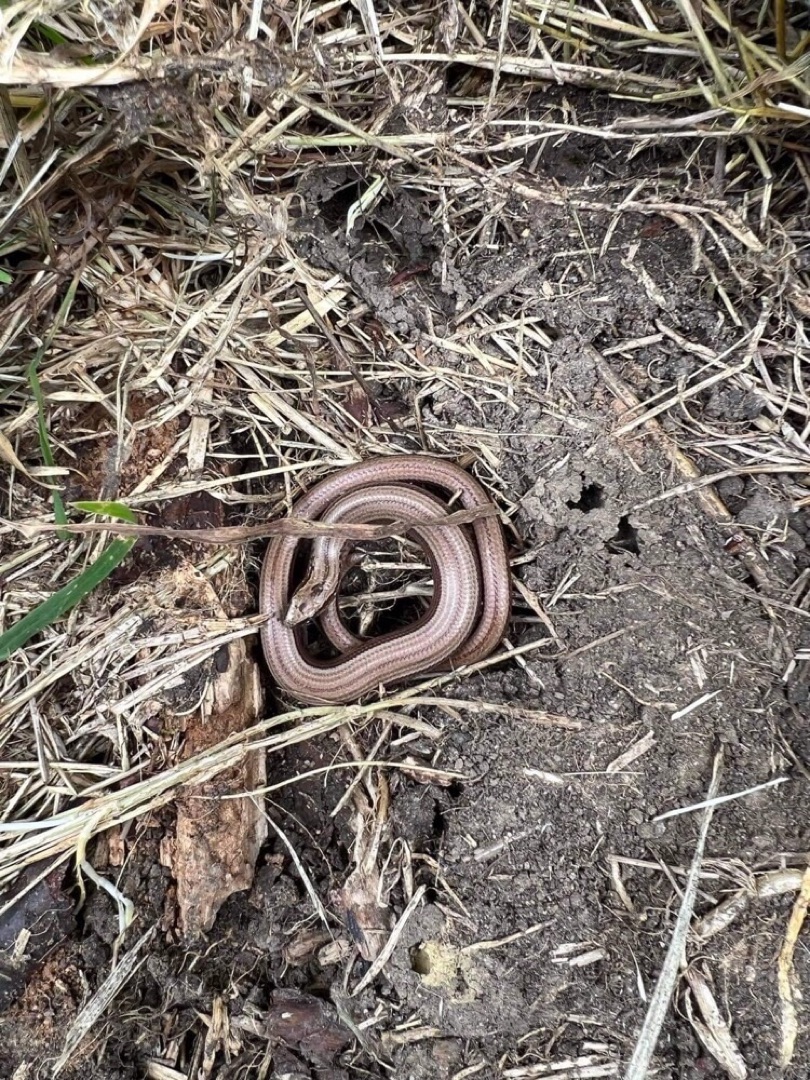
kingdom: Animalia
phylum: Chordata
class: Squamata
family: Anguidae
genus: Anguis
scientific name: Anguis fragilis
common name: Stålorm
